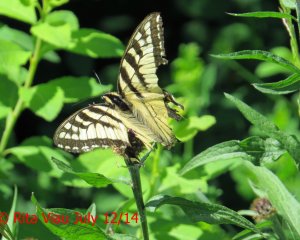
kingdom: Animalia
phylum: Arthropoda
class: Insecta
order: Lepidoptera
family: Papilionidae
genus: Pterourus
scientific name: Pterourus canadensis
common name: Canadian Tiger Swallowtail
